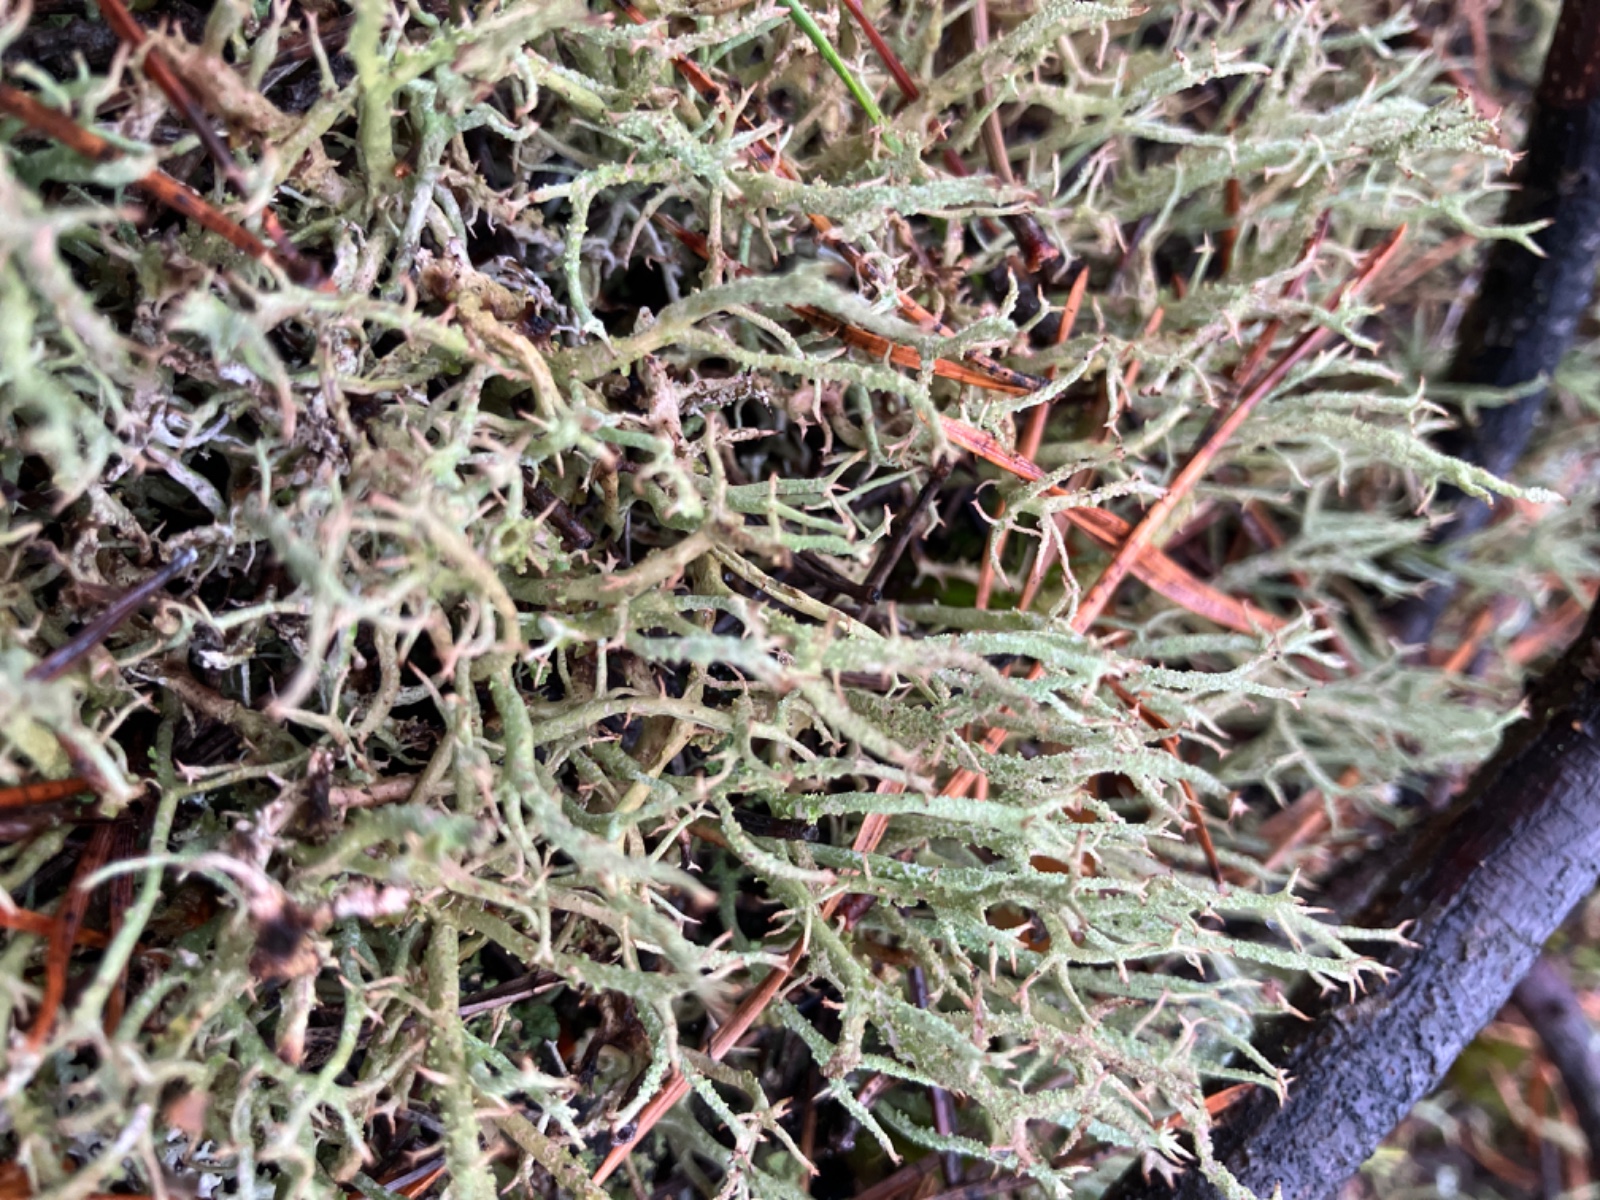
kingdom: Fungi
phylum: Ascomycota
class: Lecanoromycetes
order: Lecanorales
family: Cladoniaceae
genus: Cladonia
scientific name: Cladonia furcata
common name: kløftet bægerlav
